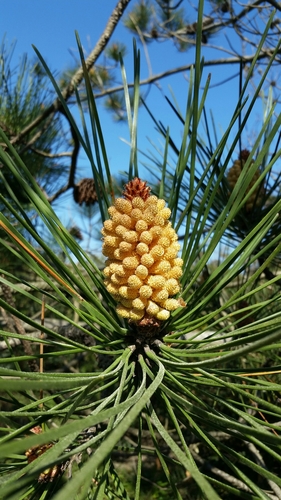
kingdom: Plantae
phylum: Tracheophyta
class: Pinopsida
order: Pinales
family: Pinaceae
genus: Pinus
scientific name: Pinus pinaster
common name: Maritime pine
